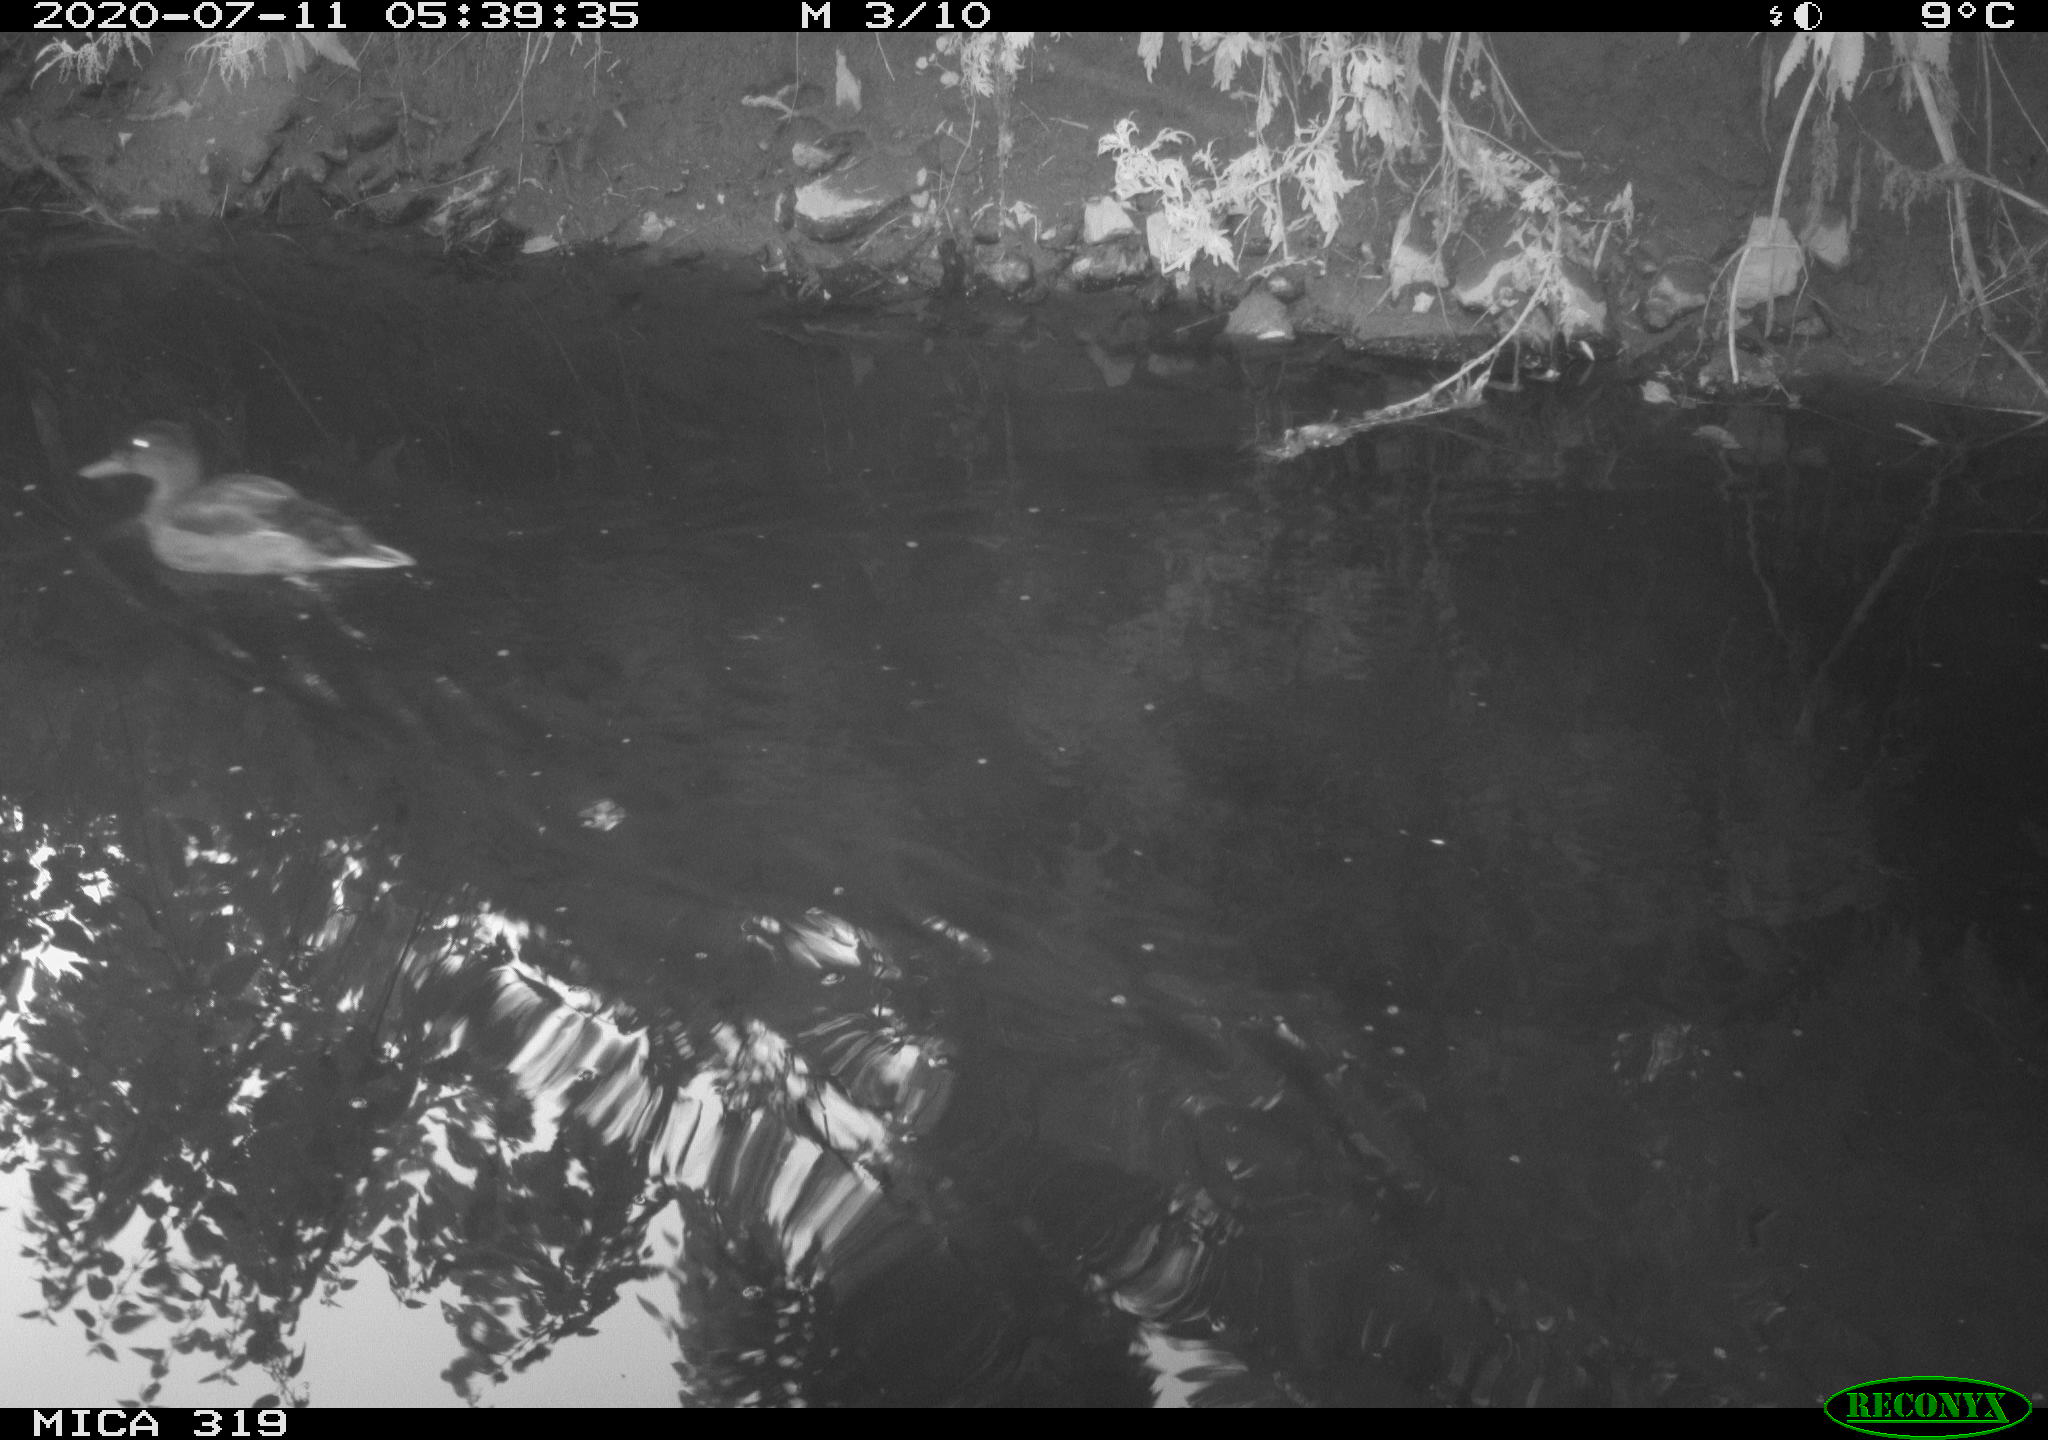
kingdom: Animalia
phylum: Chordata
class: Aves
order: Anseriformes
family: Anatidae
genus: Anas
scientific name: Anas platyrhynchos
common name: Mallard
